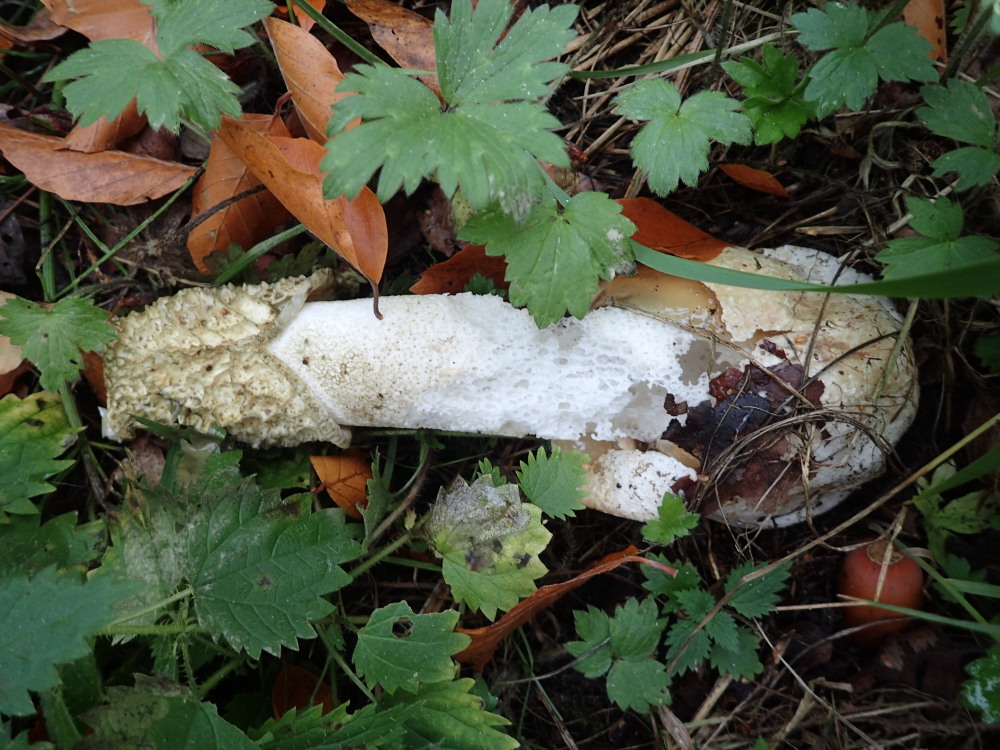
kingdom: Fungi
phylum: Basidiomycota
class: Agaricomycetes
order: Phallales
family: Phallaceae
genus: Phallus
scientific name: Phallus impudicus
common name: almindelig stinksvamp
